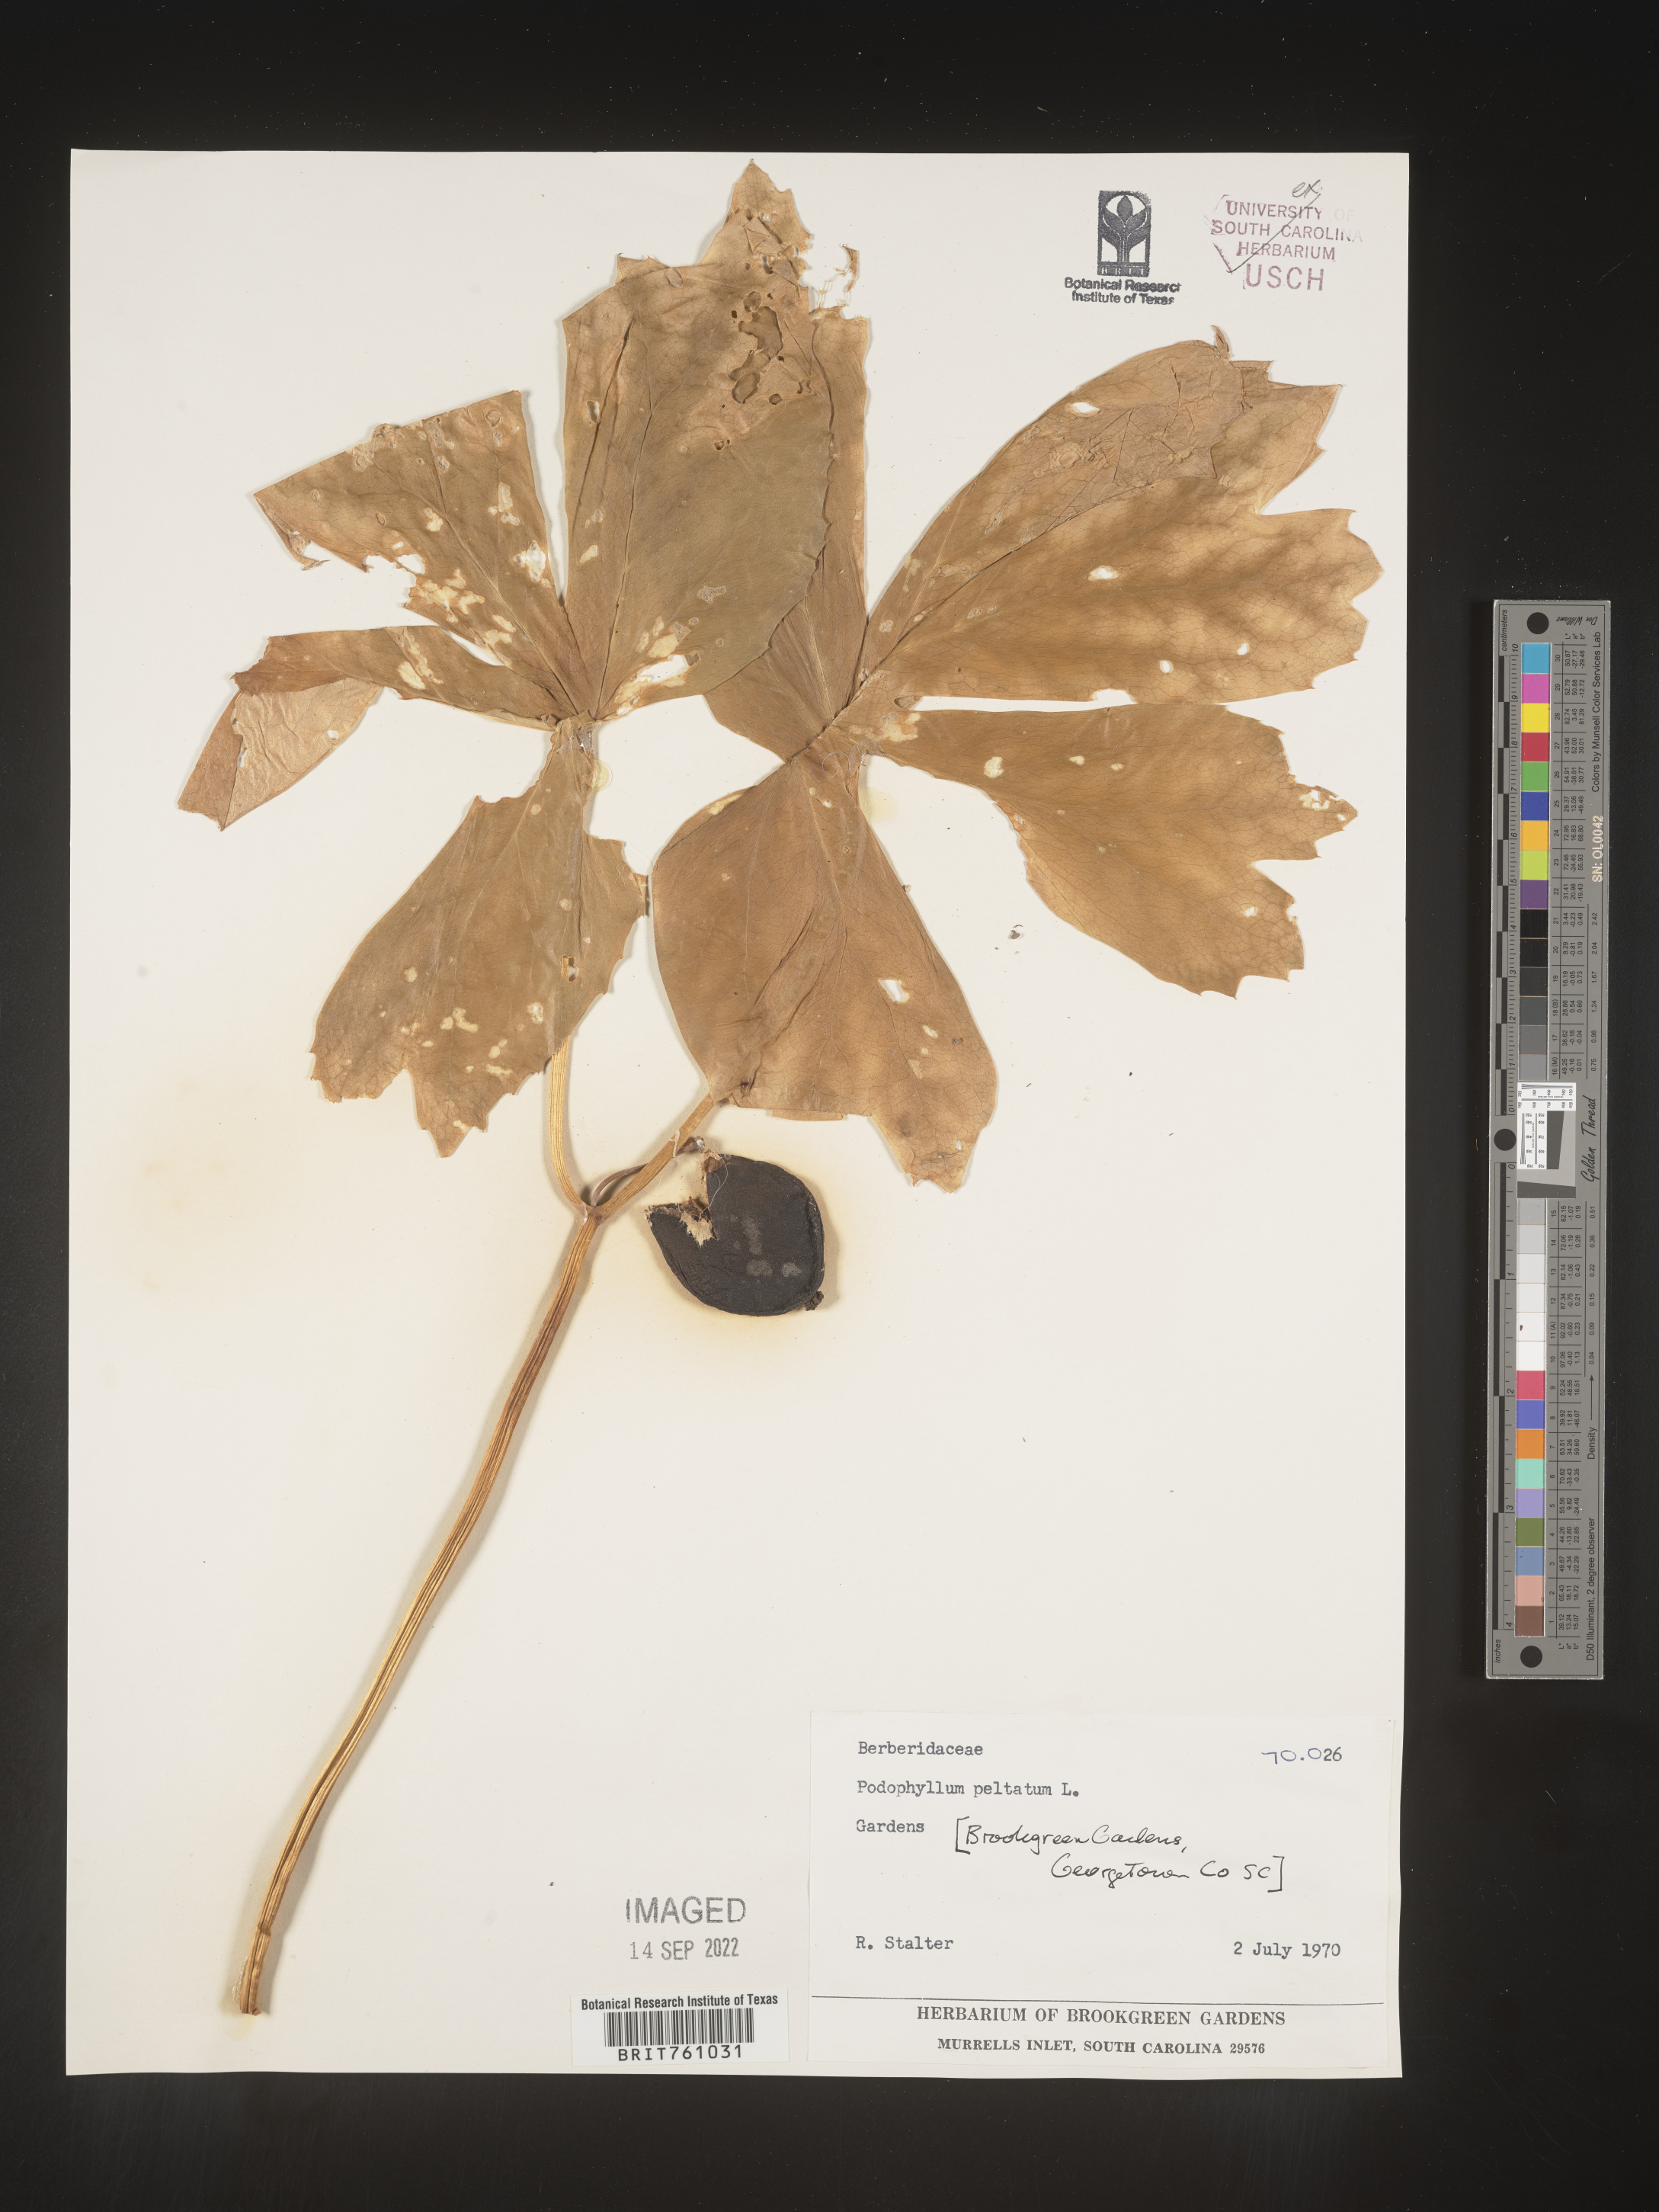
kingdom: Plantae
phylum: Tracheophyta
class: Magnoliopsida
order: Ranunculales
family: Berberidaceae
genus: Podophyllum
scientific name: Podophyllum
